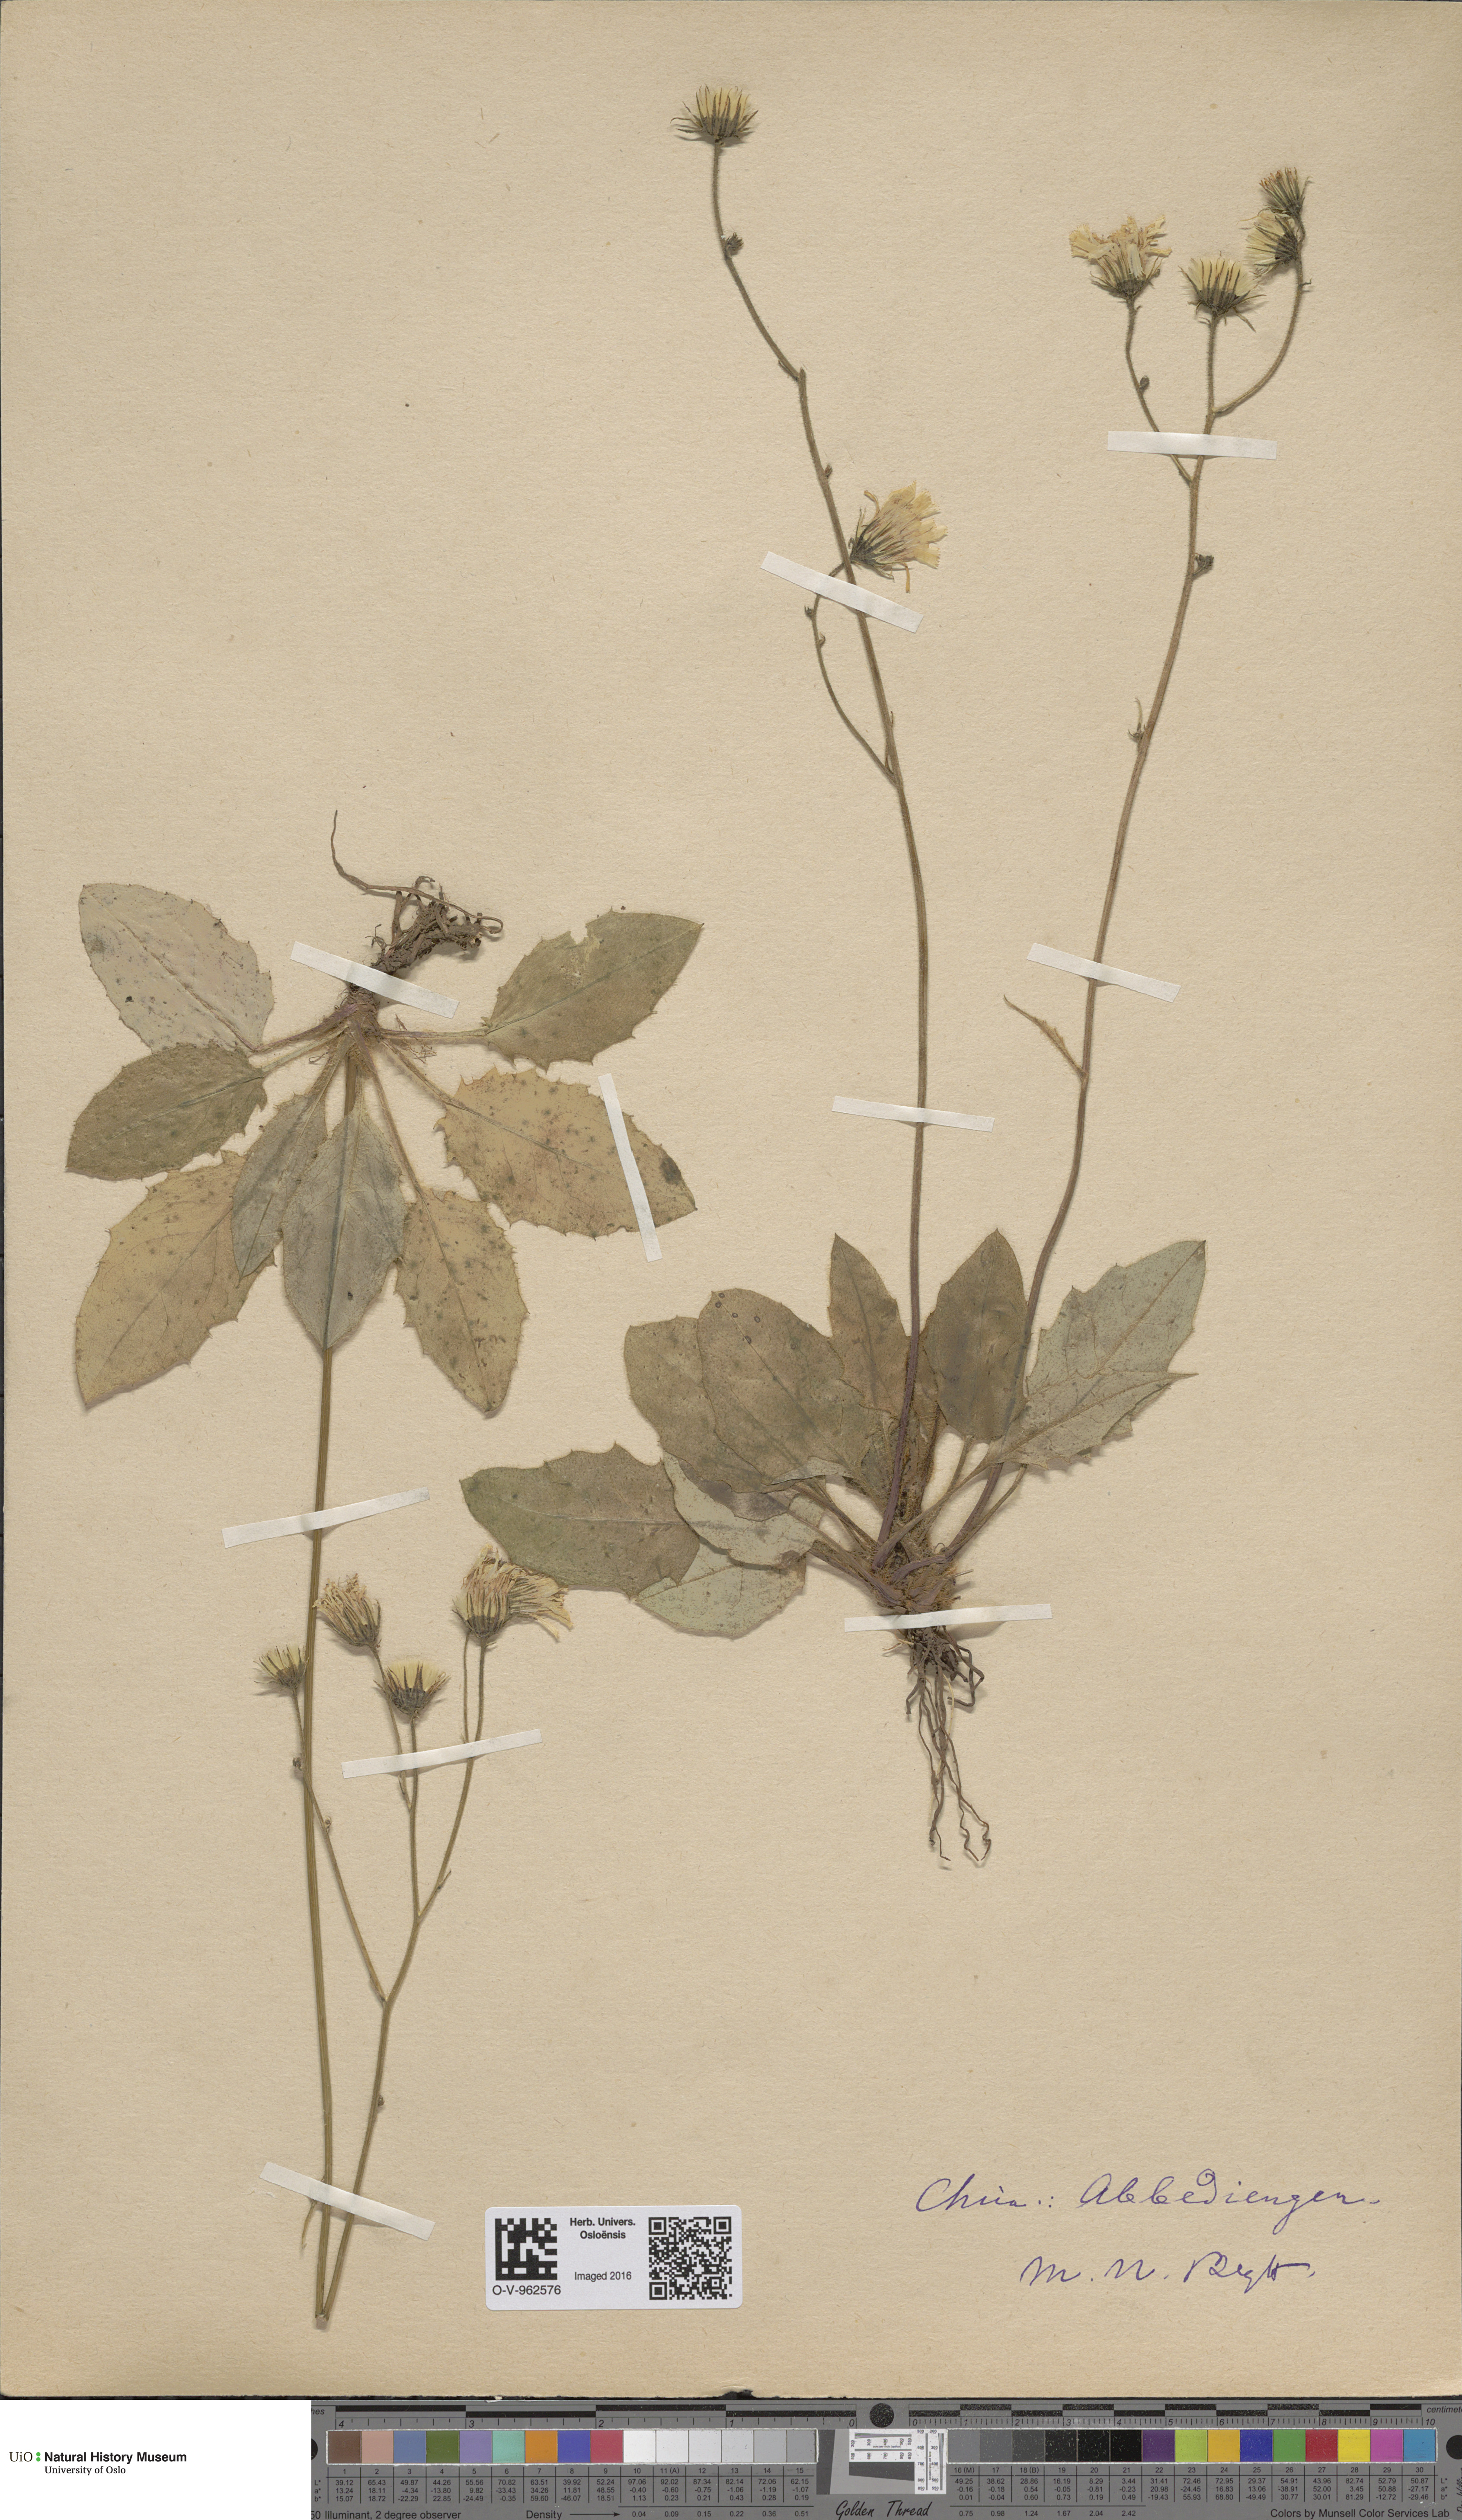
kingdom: Plantae
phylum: Tracheophyta
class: Magnoliopsida
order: Asterales
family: Asteraceae
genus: Hieracium
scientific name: Hieracium
